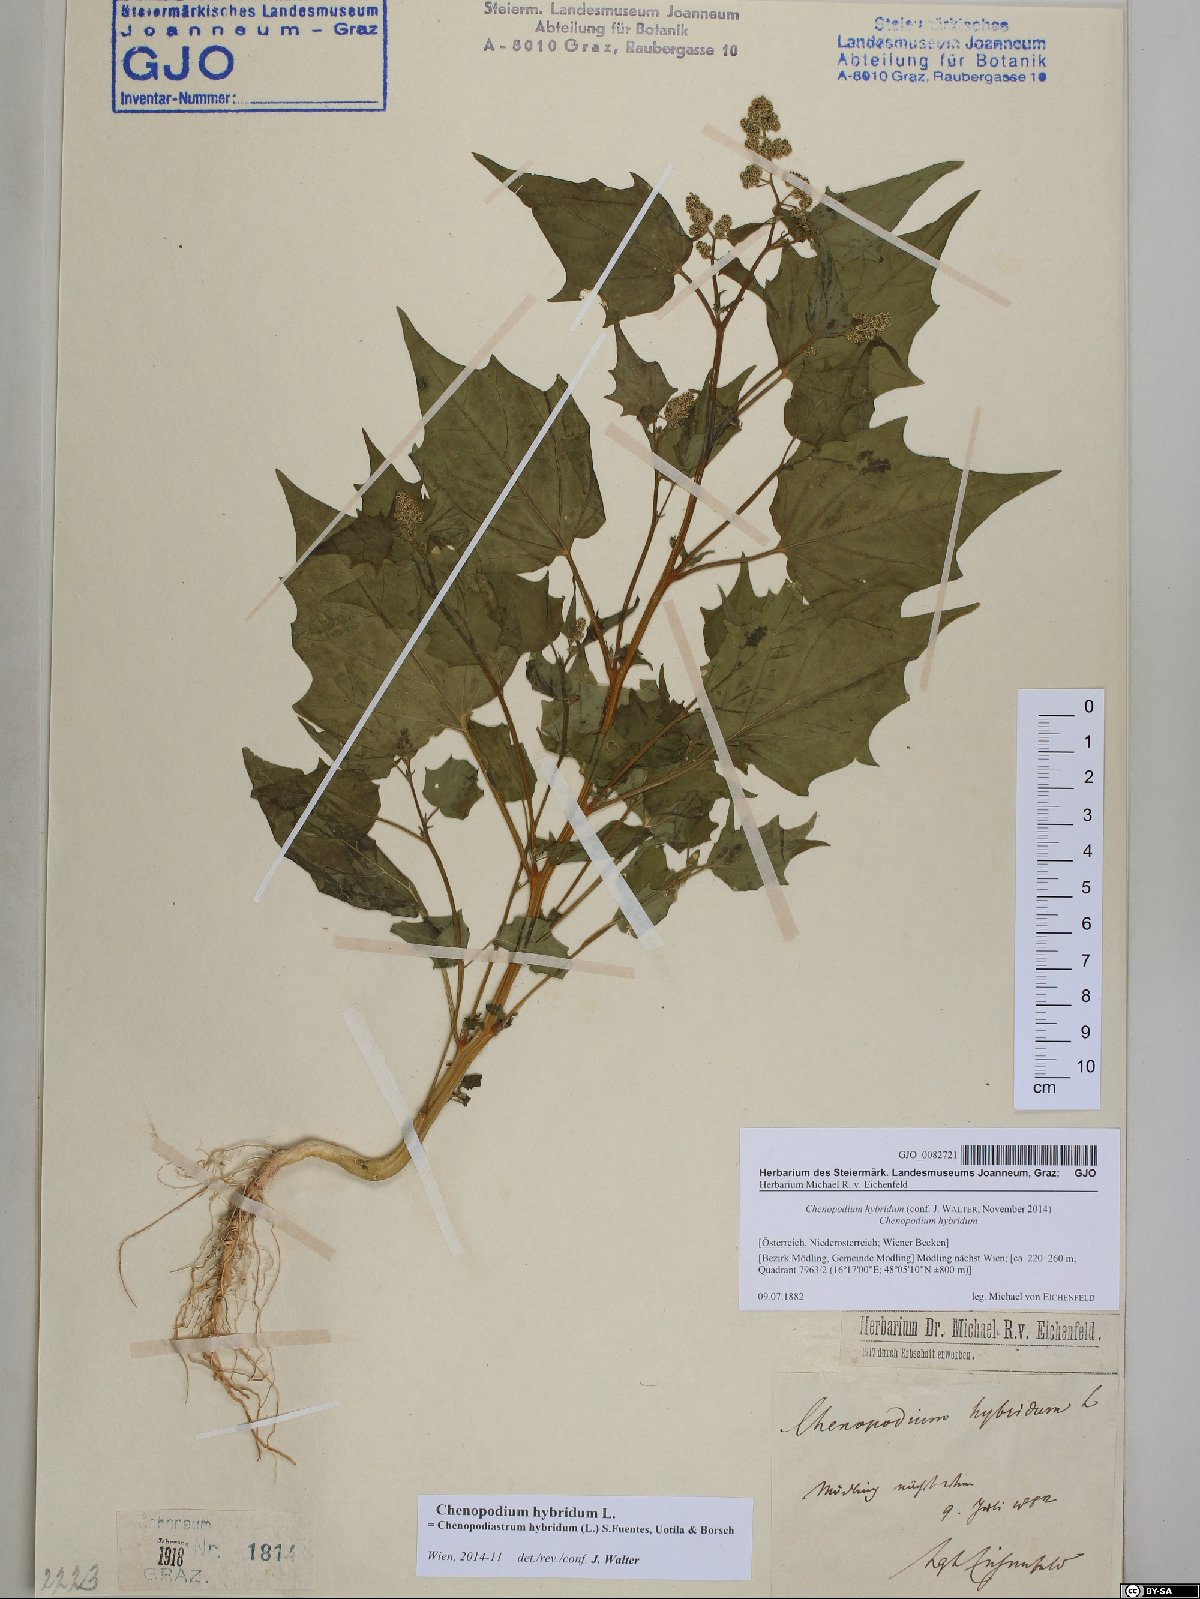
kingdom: Plantae
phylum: Tracheophyta
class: Magnoliopsida
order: Caryophyllales
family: Amaranthaceae
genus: Chenopodiastrum
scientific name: Chenopodiastrum hybridum
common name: Mapleleaf goosefoot
